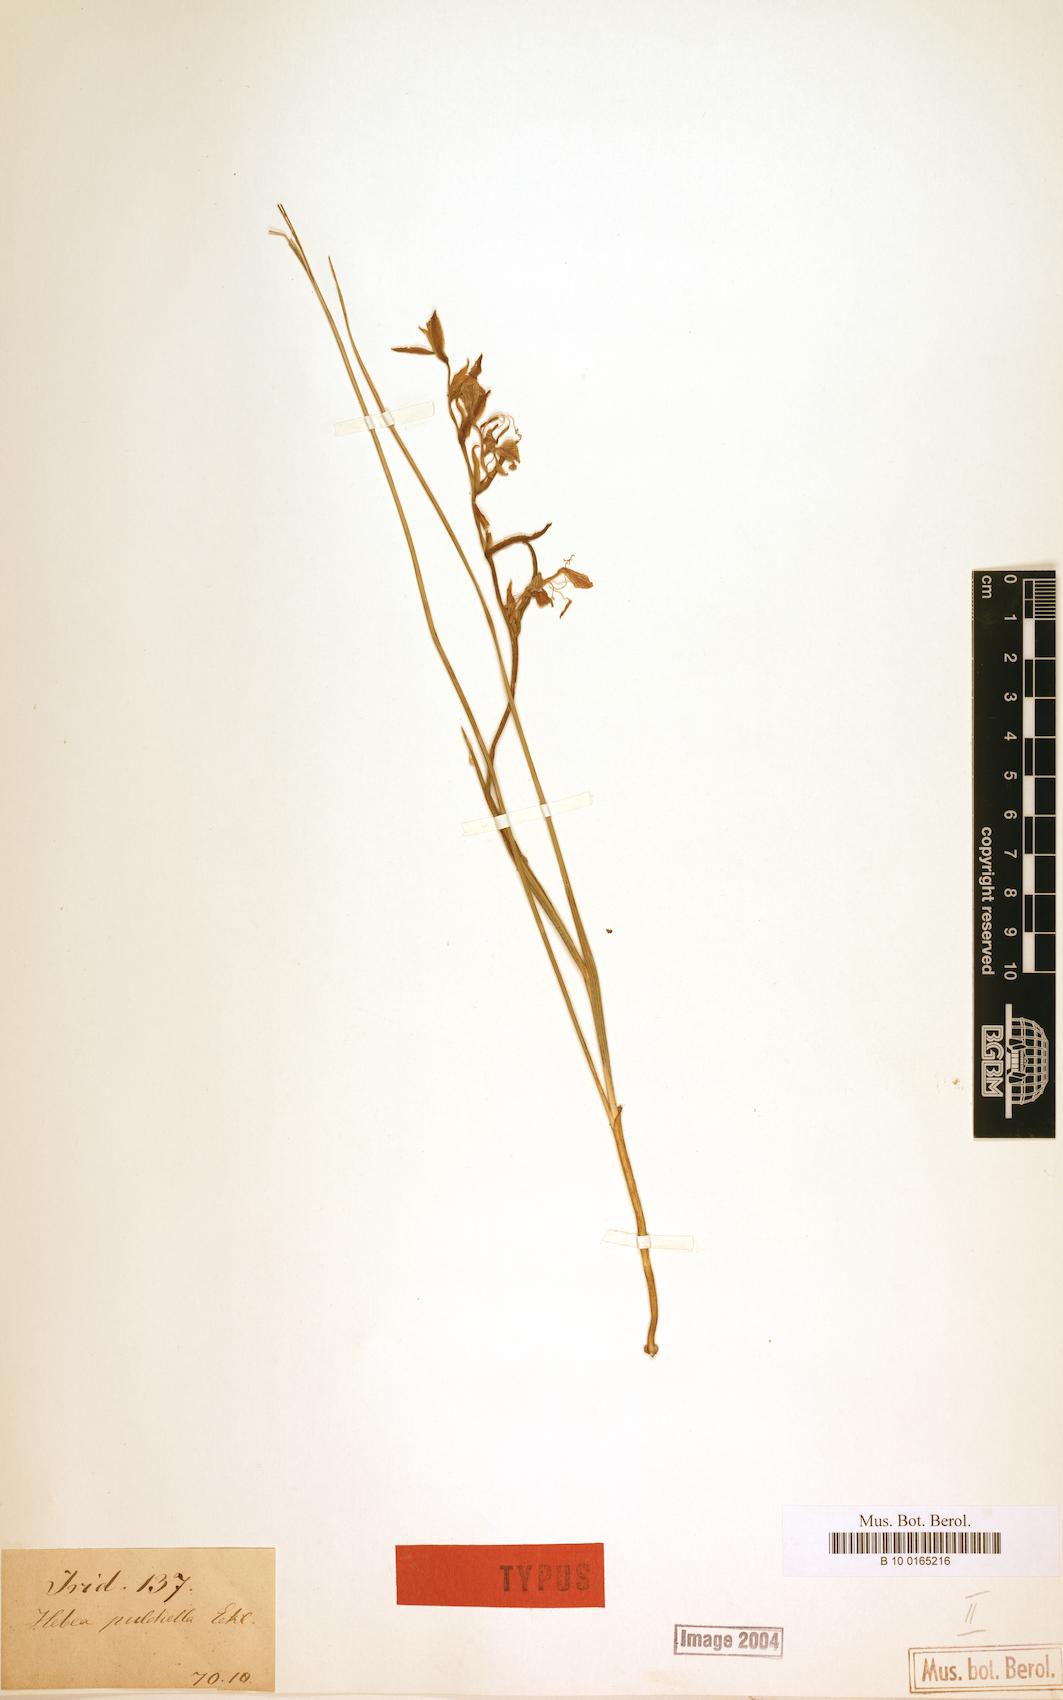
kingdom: Plantae
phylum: Tracheophyta
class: Liliopsida
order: Asparagales
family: Iridaceae
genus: Gladiolus
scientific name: Gladiolus virescens
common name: Yellow kalkoentjie
